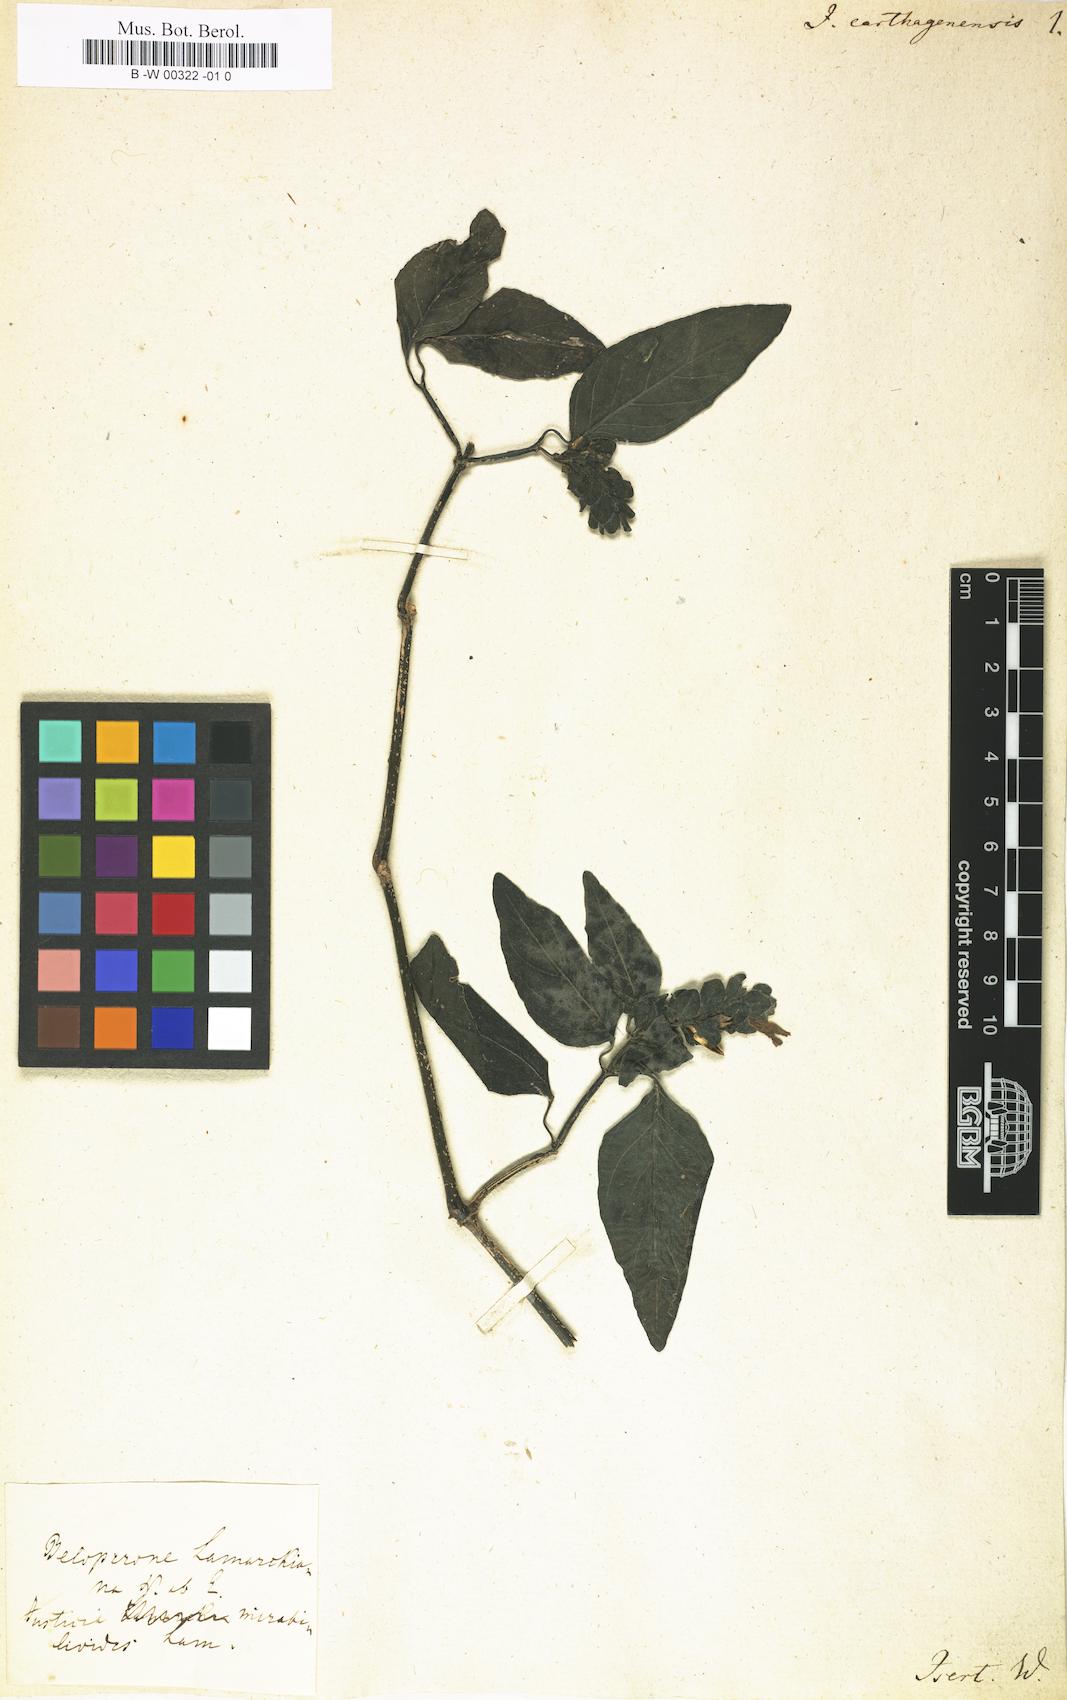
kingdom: Plantae
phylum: Tracheophyta
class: Magnoliopsida
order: Lamiales
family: Acanthaceae
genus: Justicia
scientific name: Justicia carthaginensis
